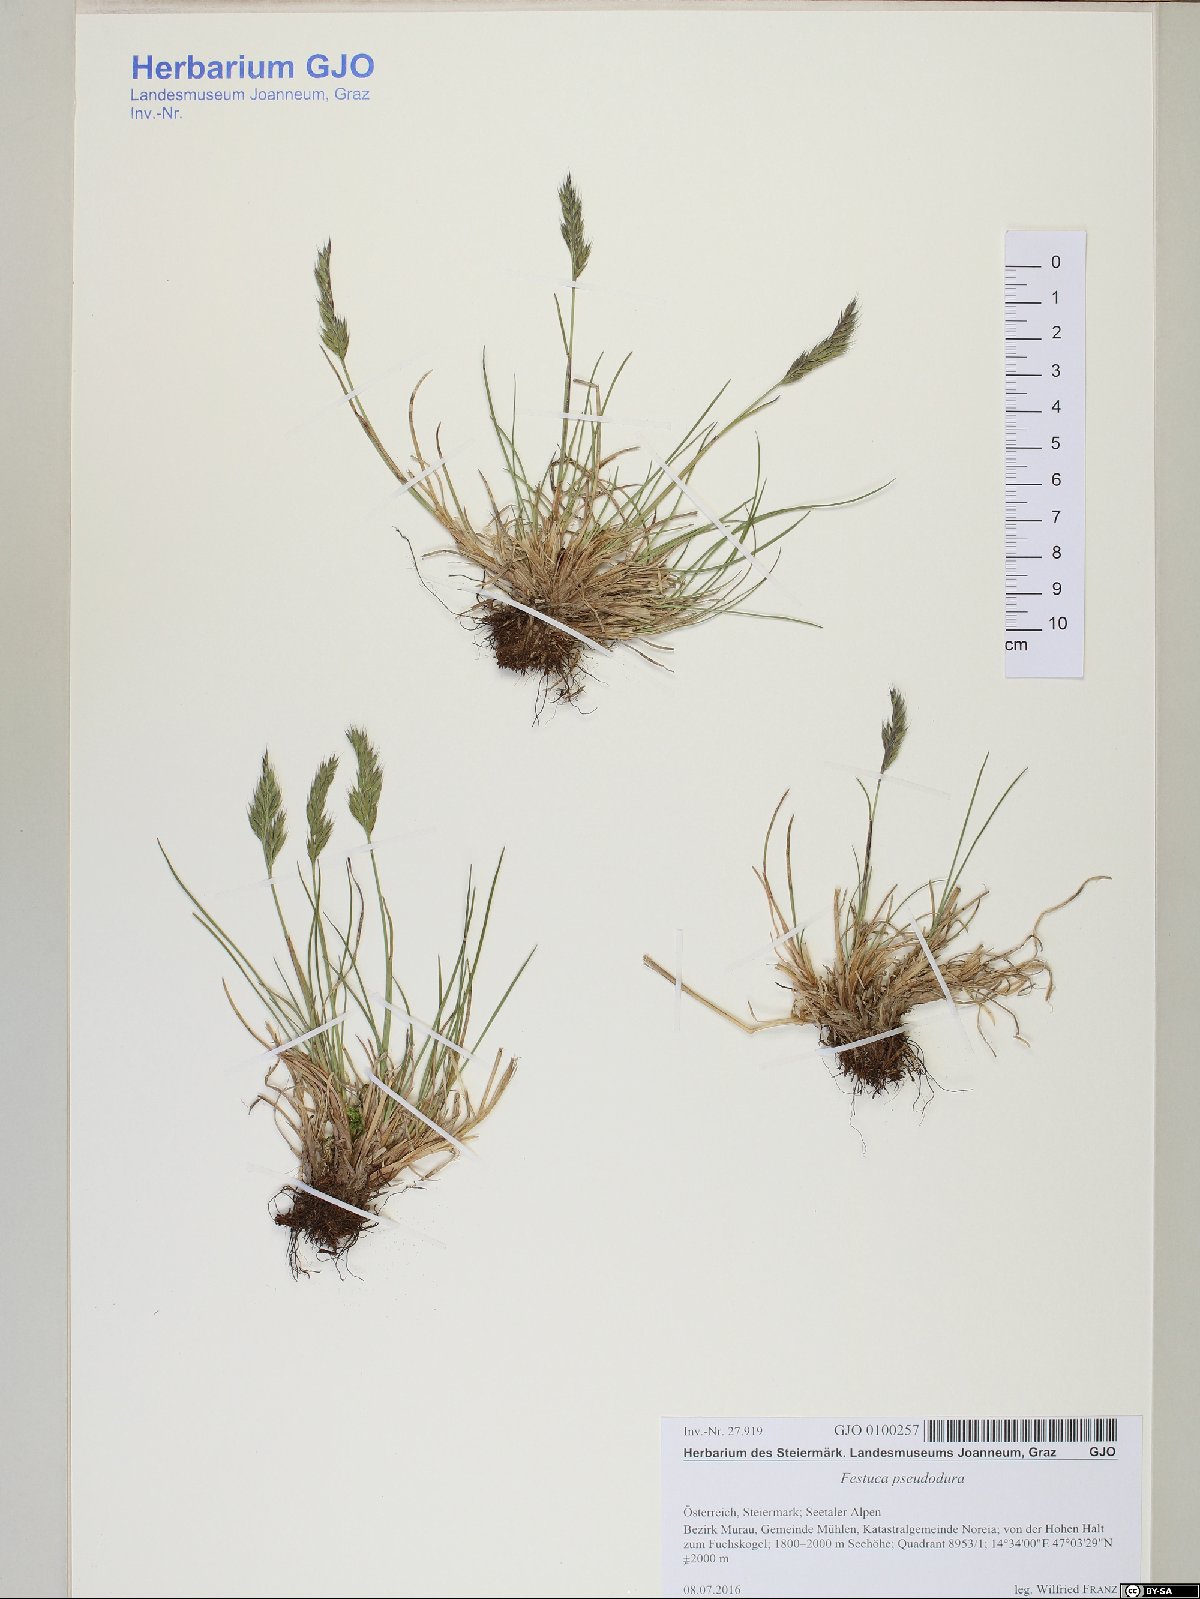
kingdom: Plantae
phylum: Tracheophyta
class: Liliopsida
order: Poales
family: Poaceae
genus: Festuca
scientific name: Festuca pseudodura
